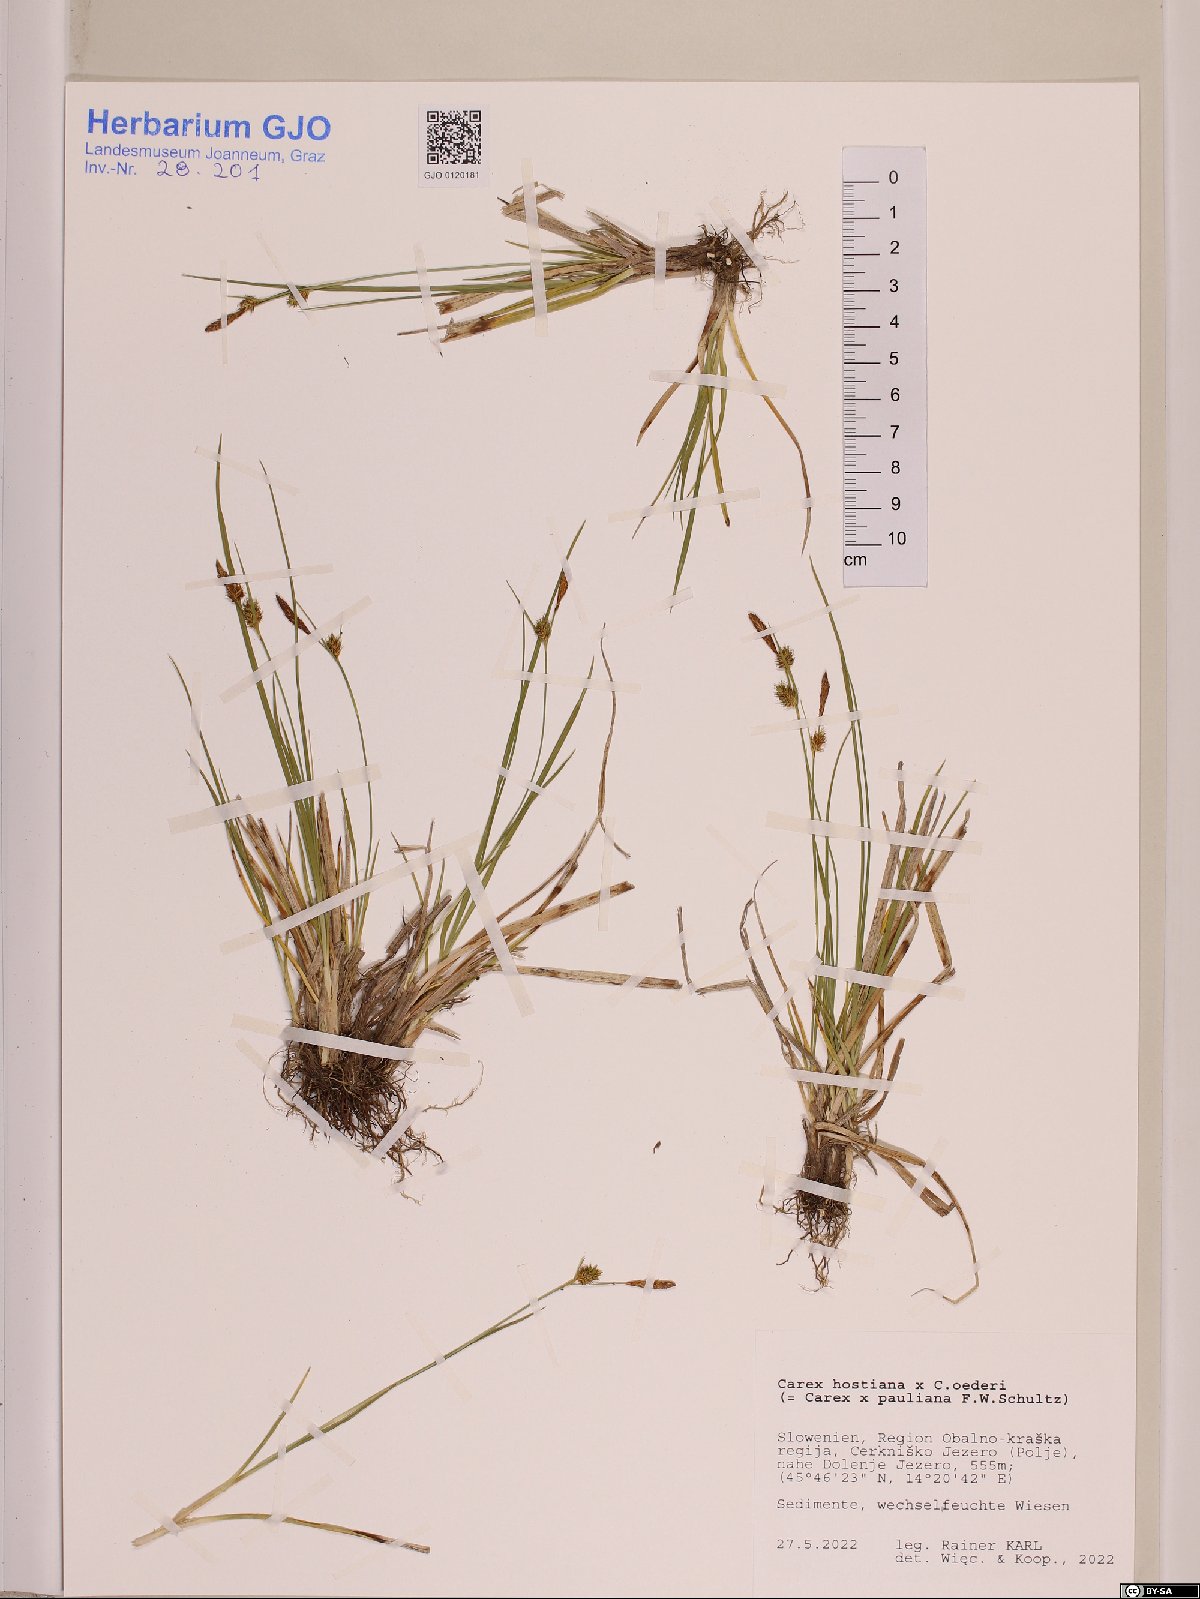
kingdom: Plantae
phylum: Tracheophyta
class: Liliopsida
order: Poales
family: Cyperaceae
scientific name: Cyperaceae
